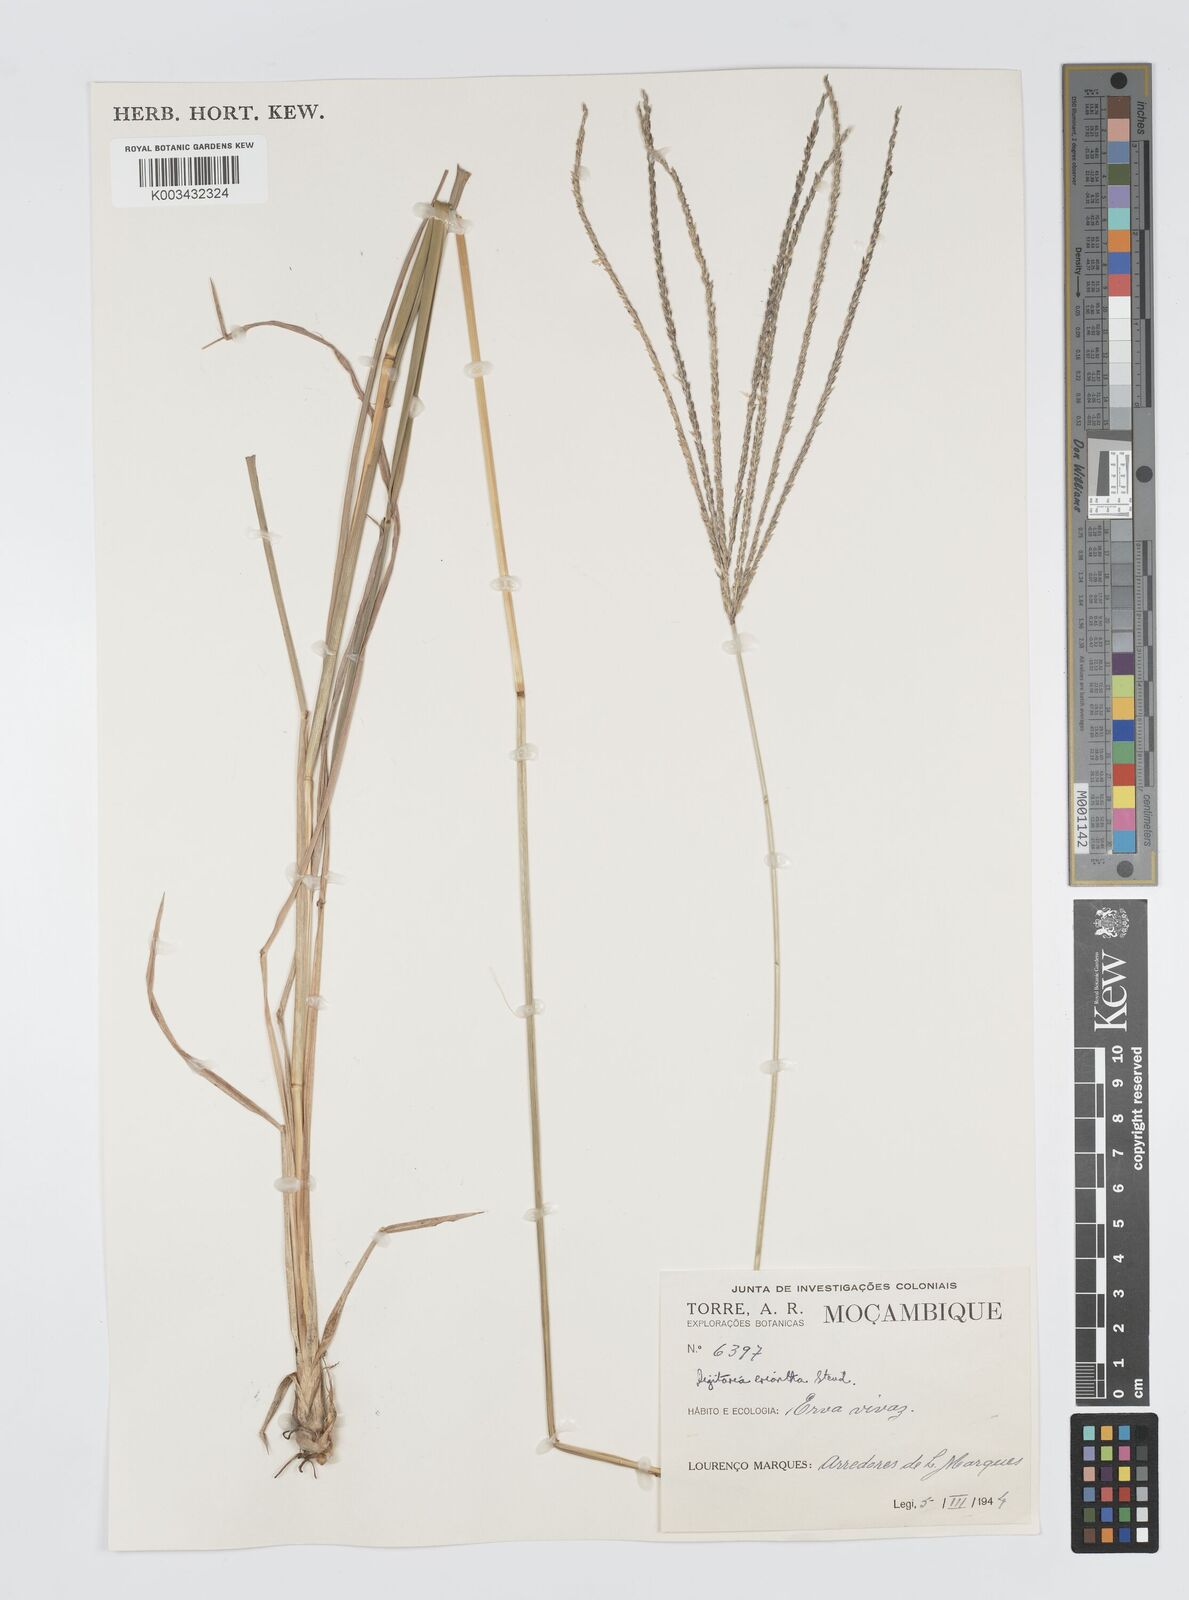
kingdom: Plantae
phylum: Tracheophyta
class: Liliopsida
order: Poales
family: Poaceae
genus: Digitaria
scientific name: Digitaria eriantha
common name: Digitgrass
